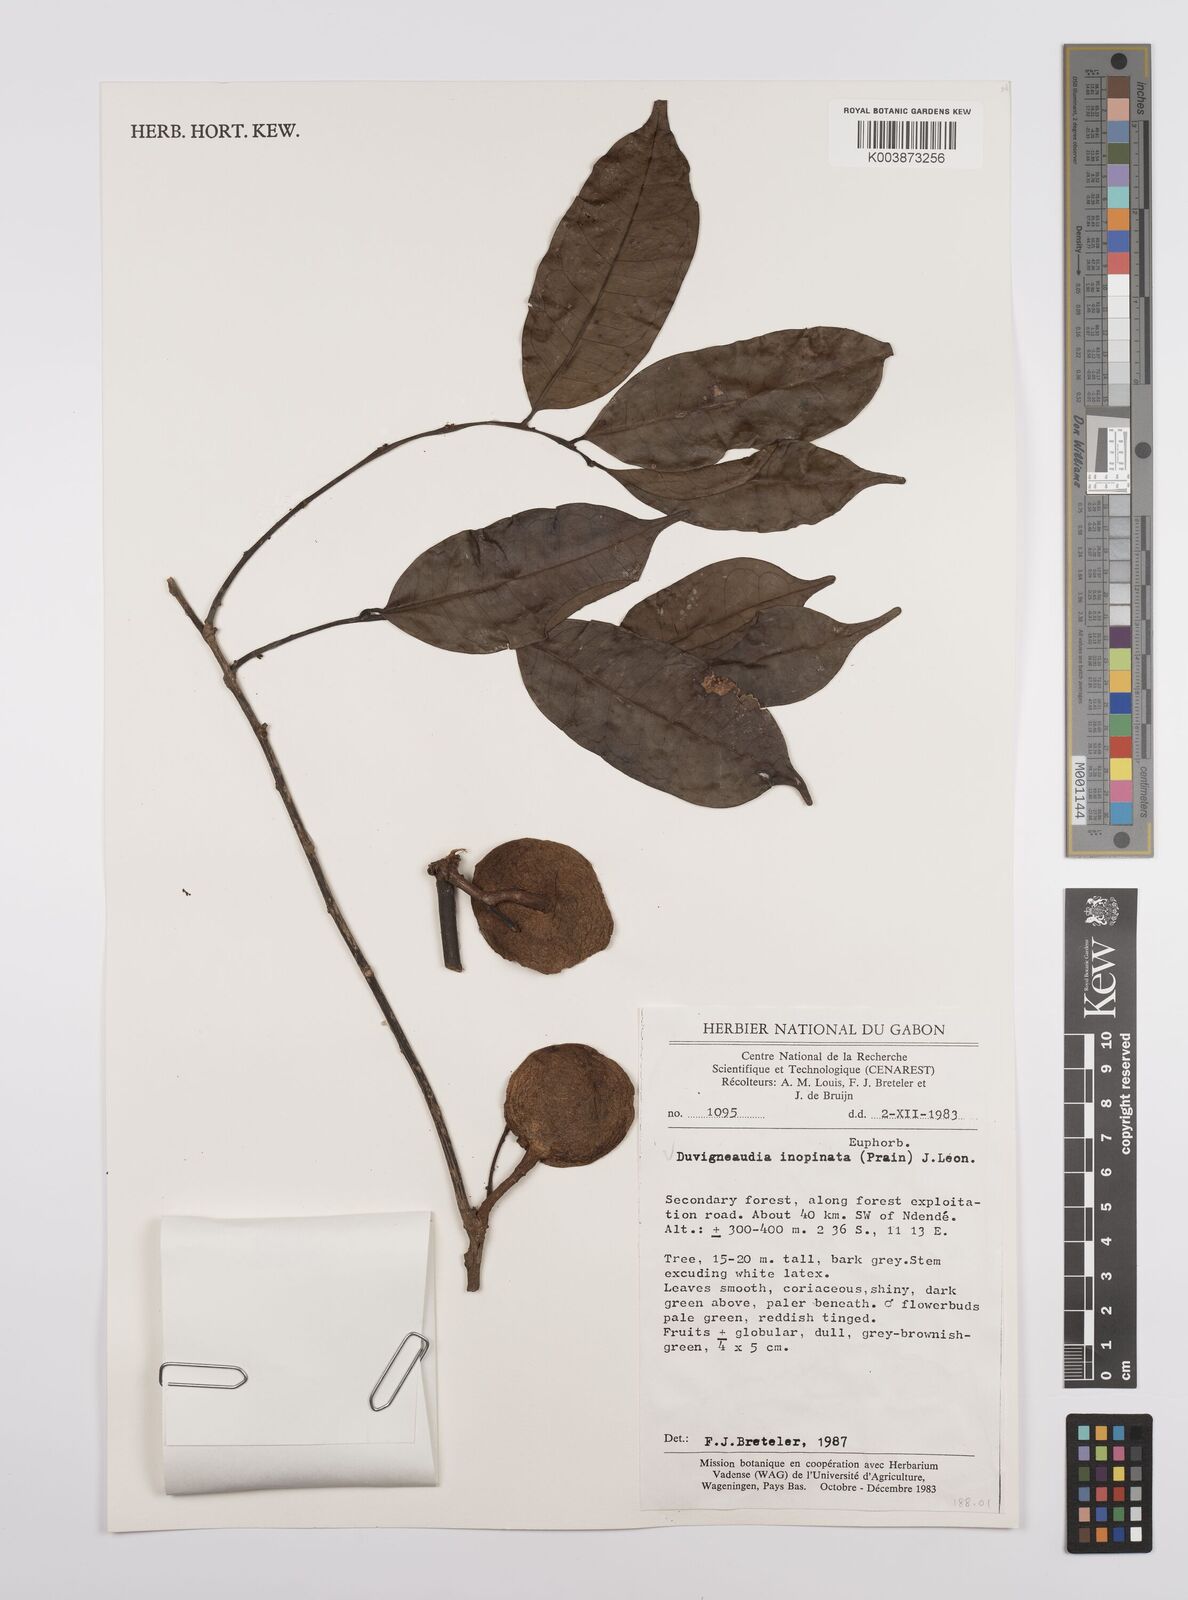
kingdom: Plantae
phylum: Tracheophyta
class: Magnoliopsida
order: Malpighiales
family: Euphorbiaceae
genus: Gymnanthes
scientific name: Gymnanthes inopinata
